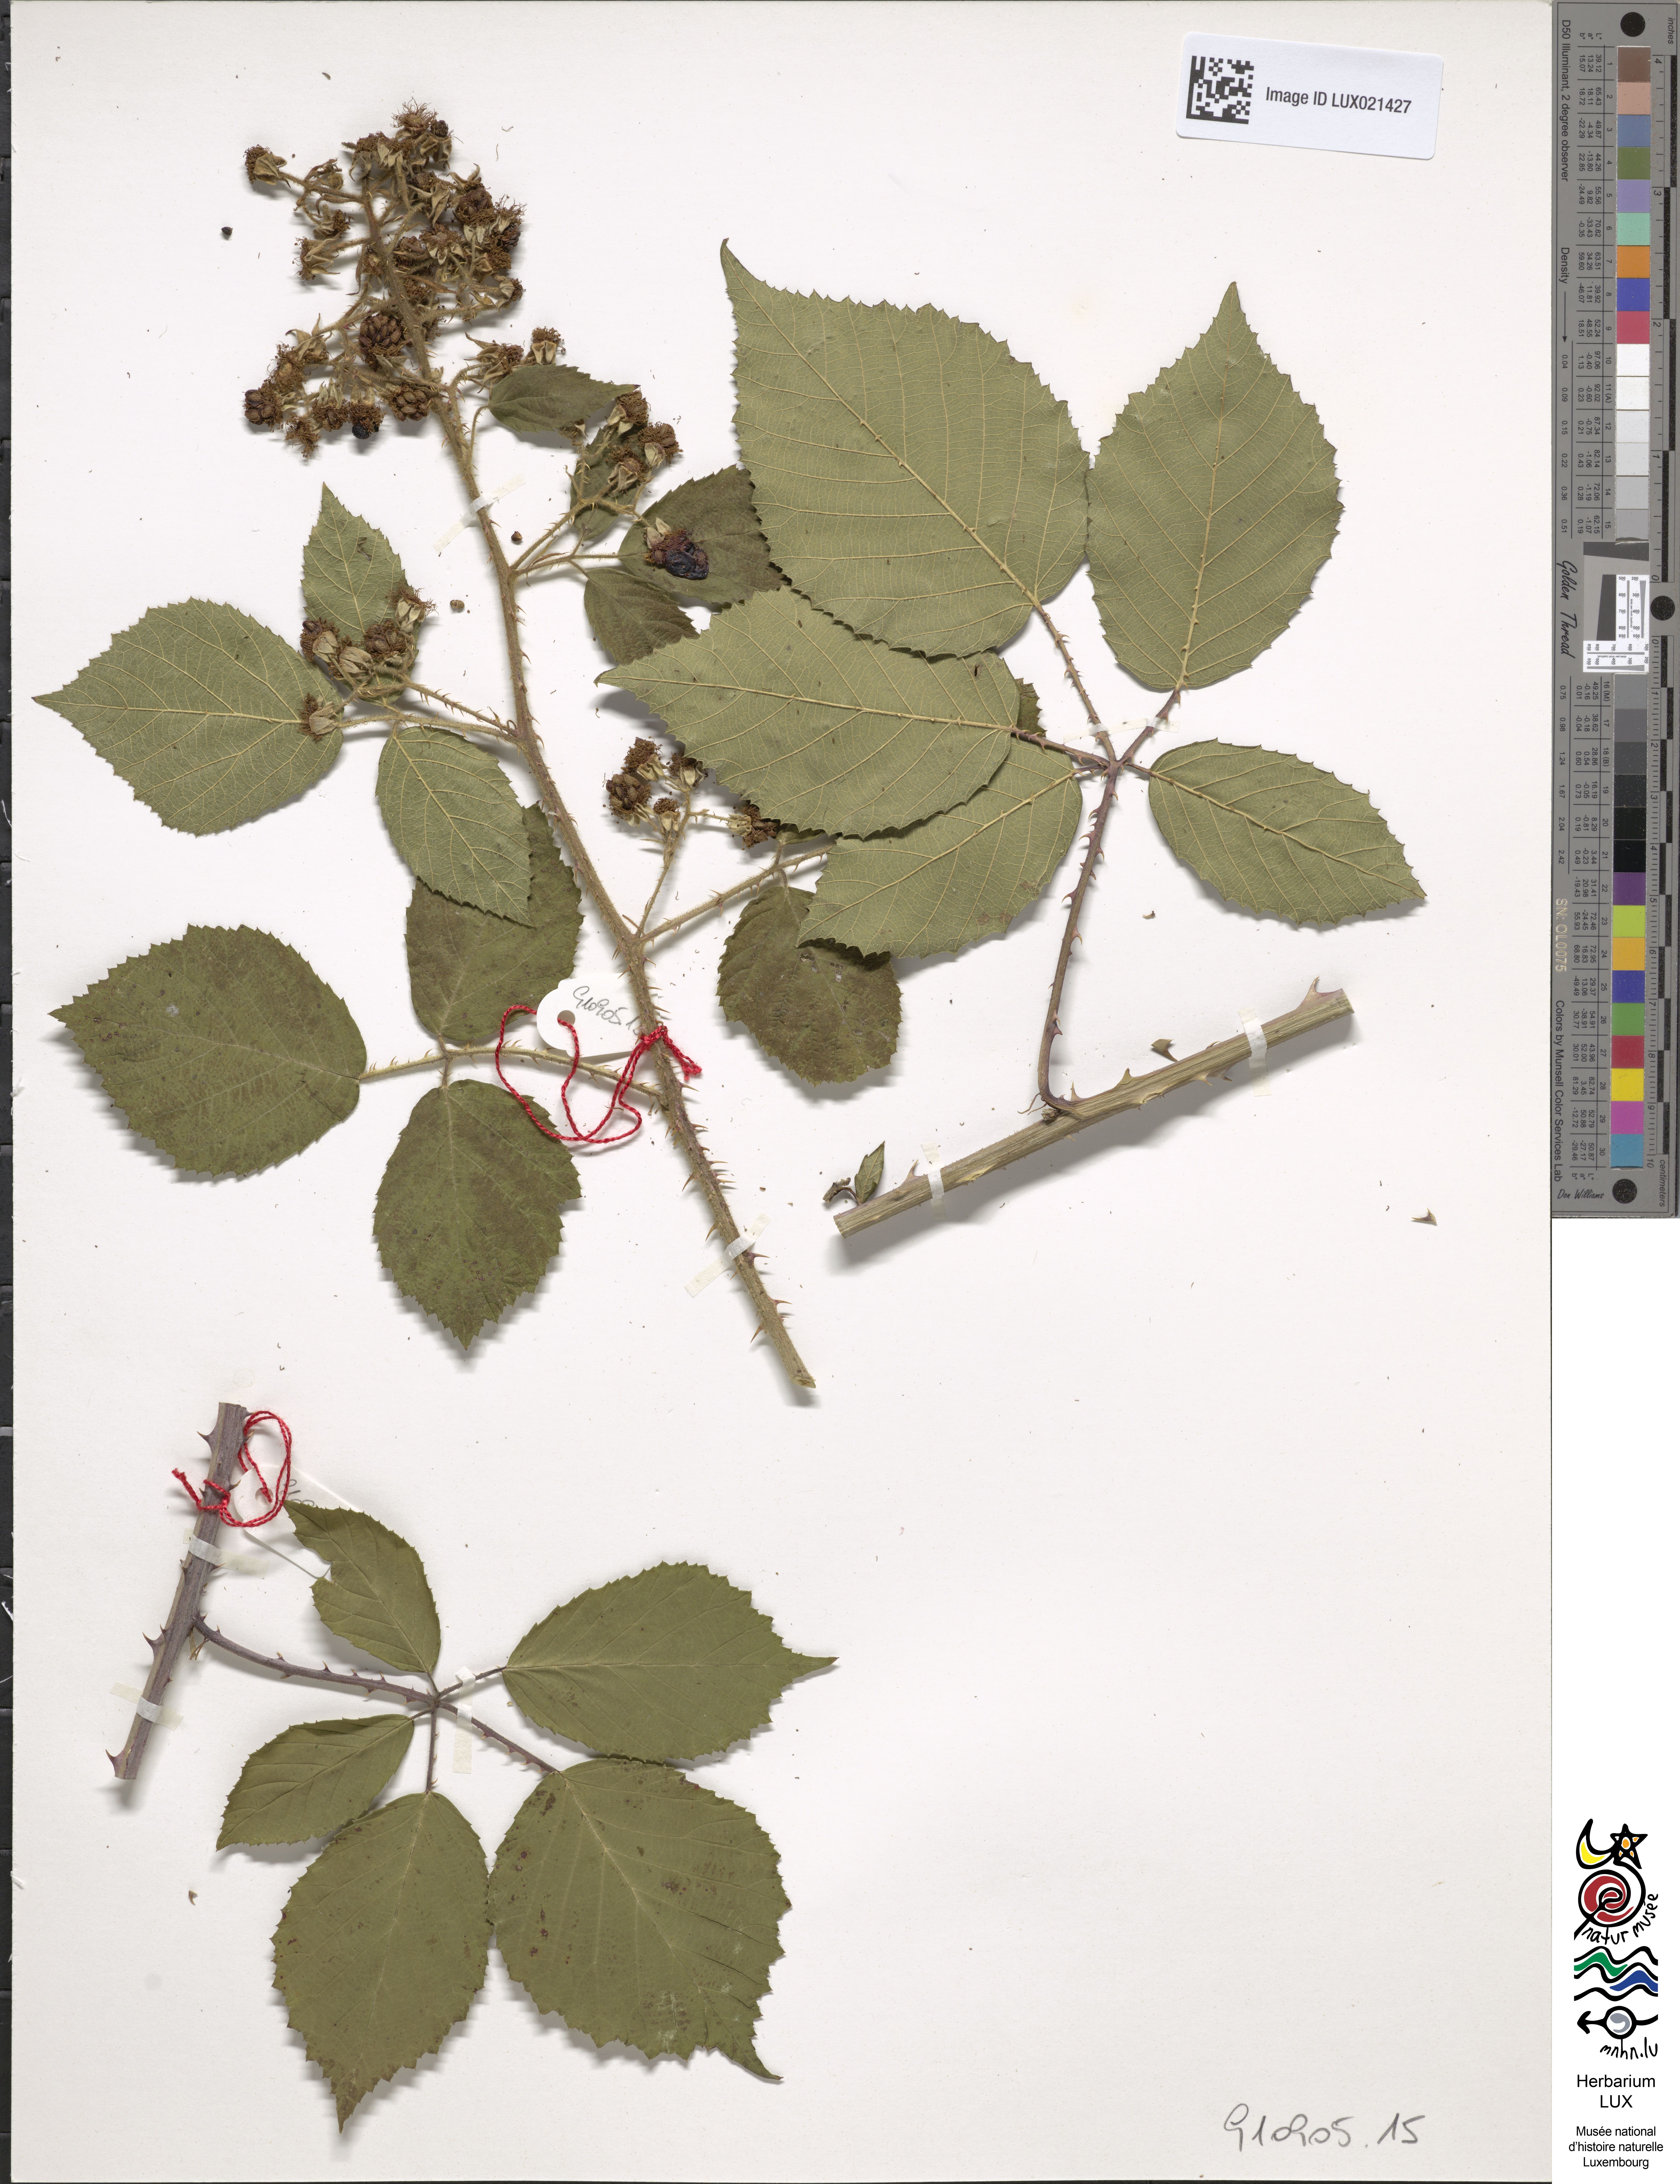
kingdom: Plantae
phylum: Tracheophyta
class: Magnoliopsida
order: Rosales
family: Rosaceae
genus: Rubus
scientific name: Rubus
